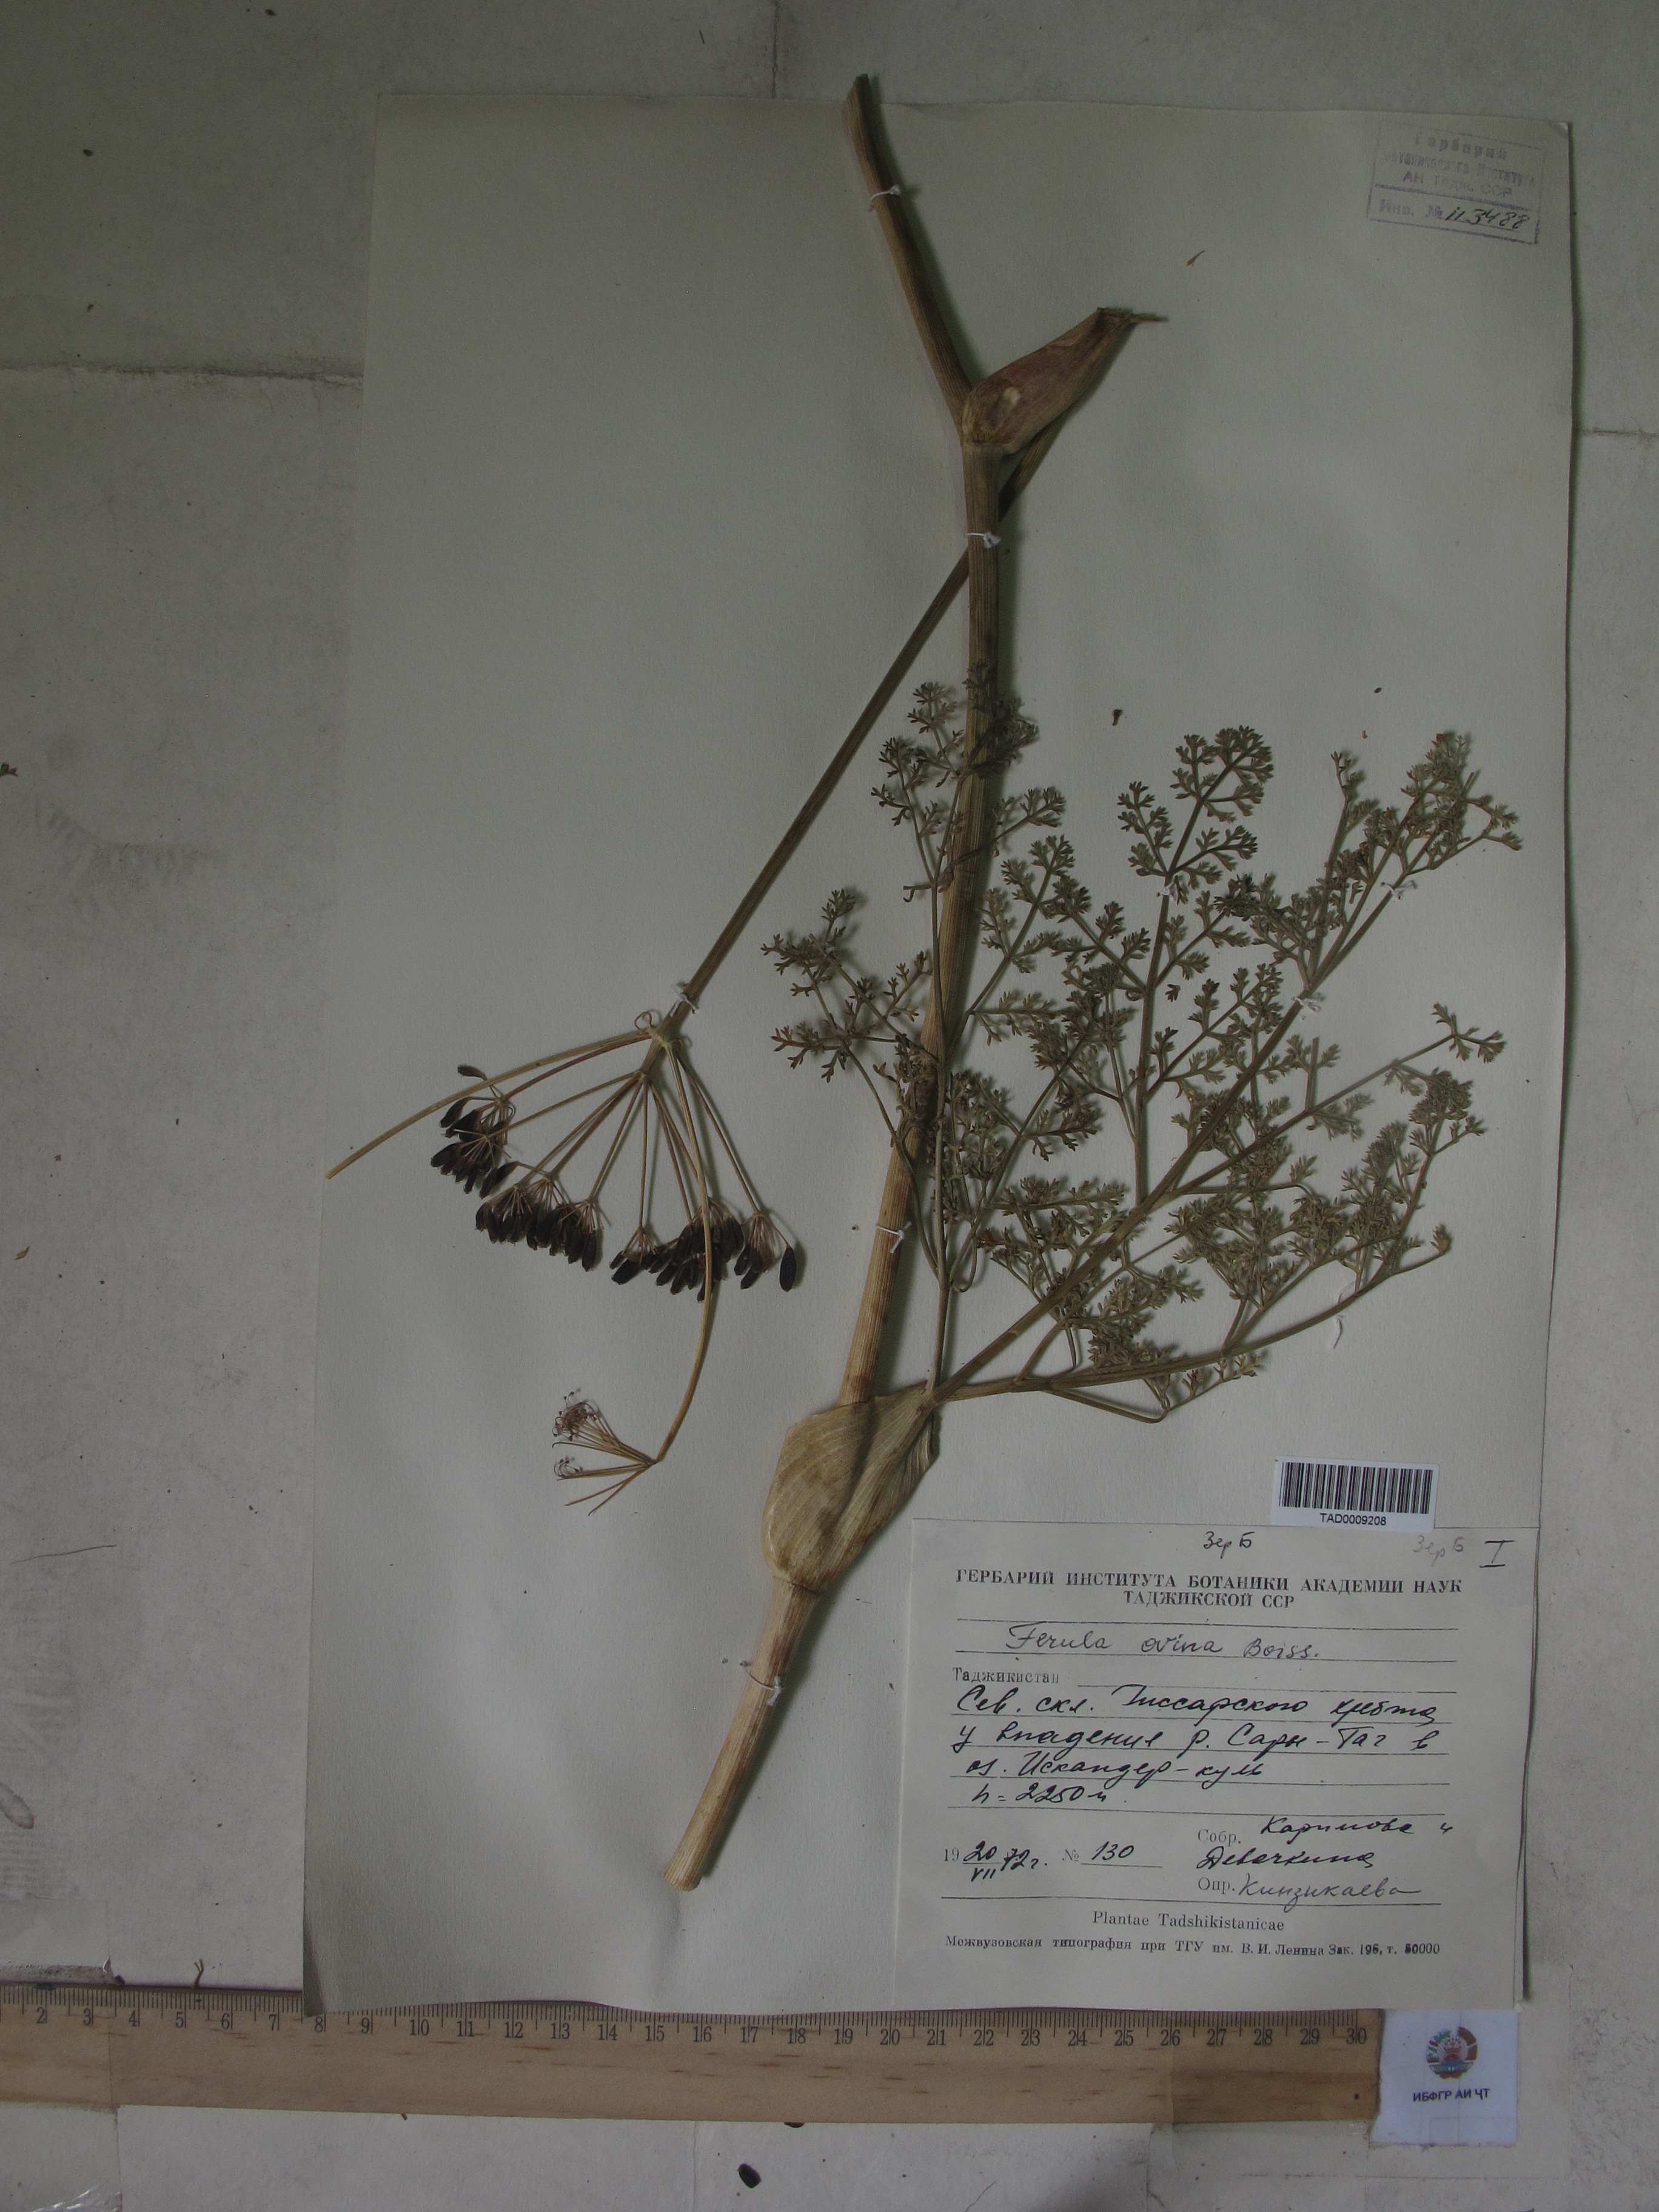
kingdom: Plantae
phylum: Tracheophyta
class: Magnoliopsida
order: Apiales
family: Apiaceae
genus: Ferula
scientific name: Ferula ovina
